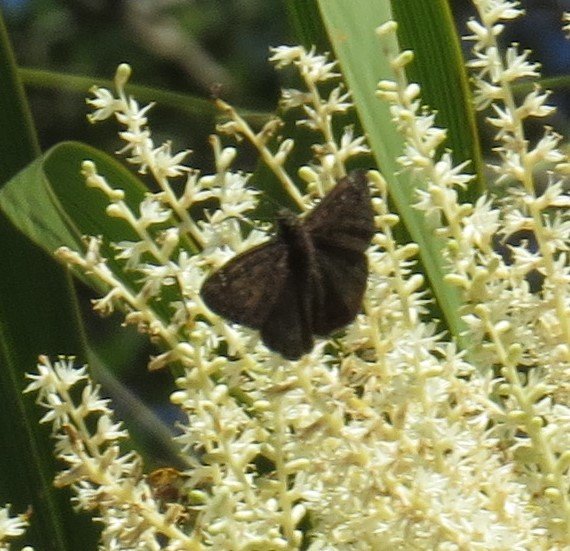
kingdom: Animalia
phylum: Arthropoda
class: Insecta
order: Lepidoptera
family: Hesperiidae
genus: Gesta
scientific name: Gesta
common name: Horace's Duskywing
